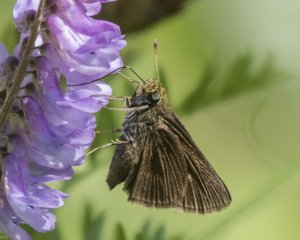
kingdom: Animalia
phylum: Arthropoda
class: Insecta
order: Lepidoptera
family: Hesperiidae
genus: Euphyes
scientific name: Euphyes vestris
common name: Dun Skipper
